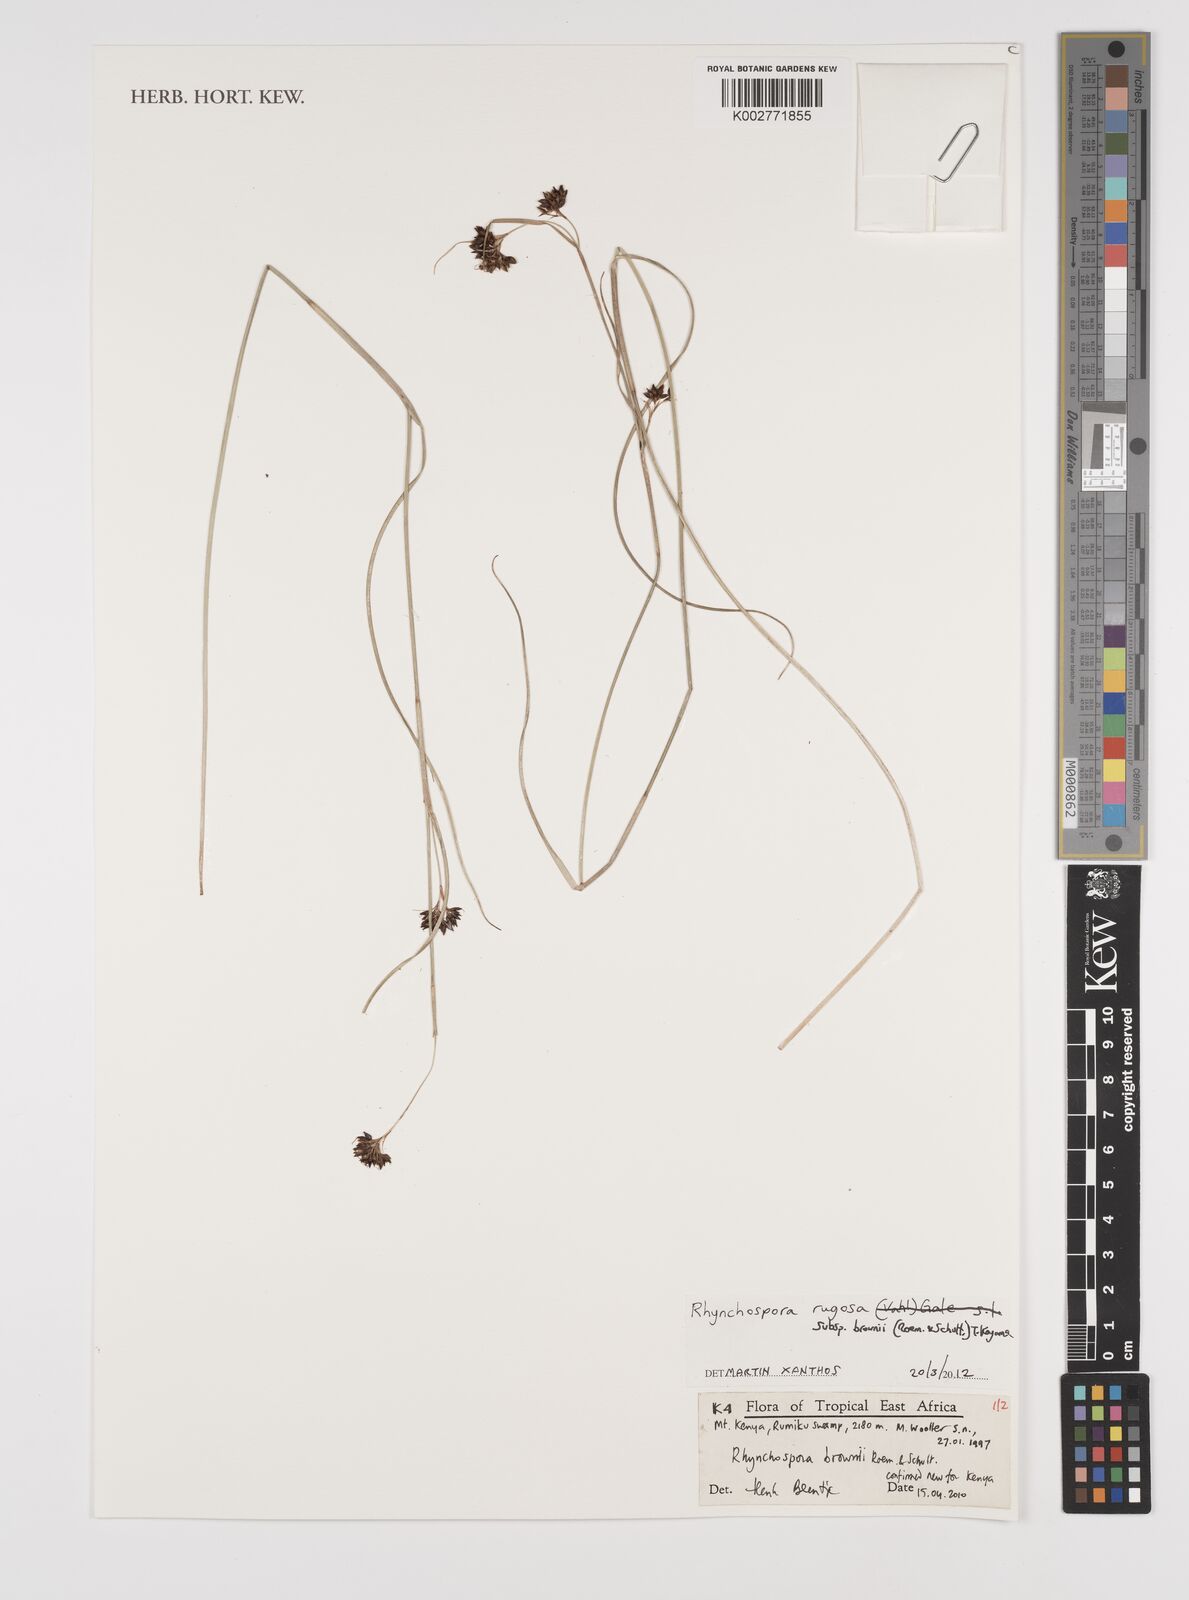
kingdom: Plantae
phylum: Tracheophyta
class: Liliopsida
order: Poales
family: Cyperaceae
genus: Rhynchospora
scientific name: Rhynchospora brownii
